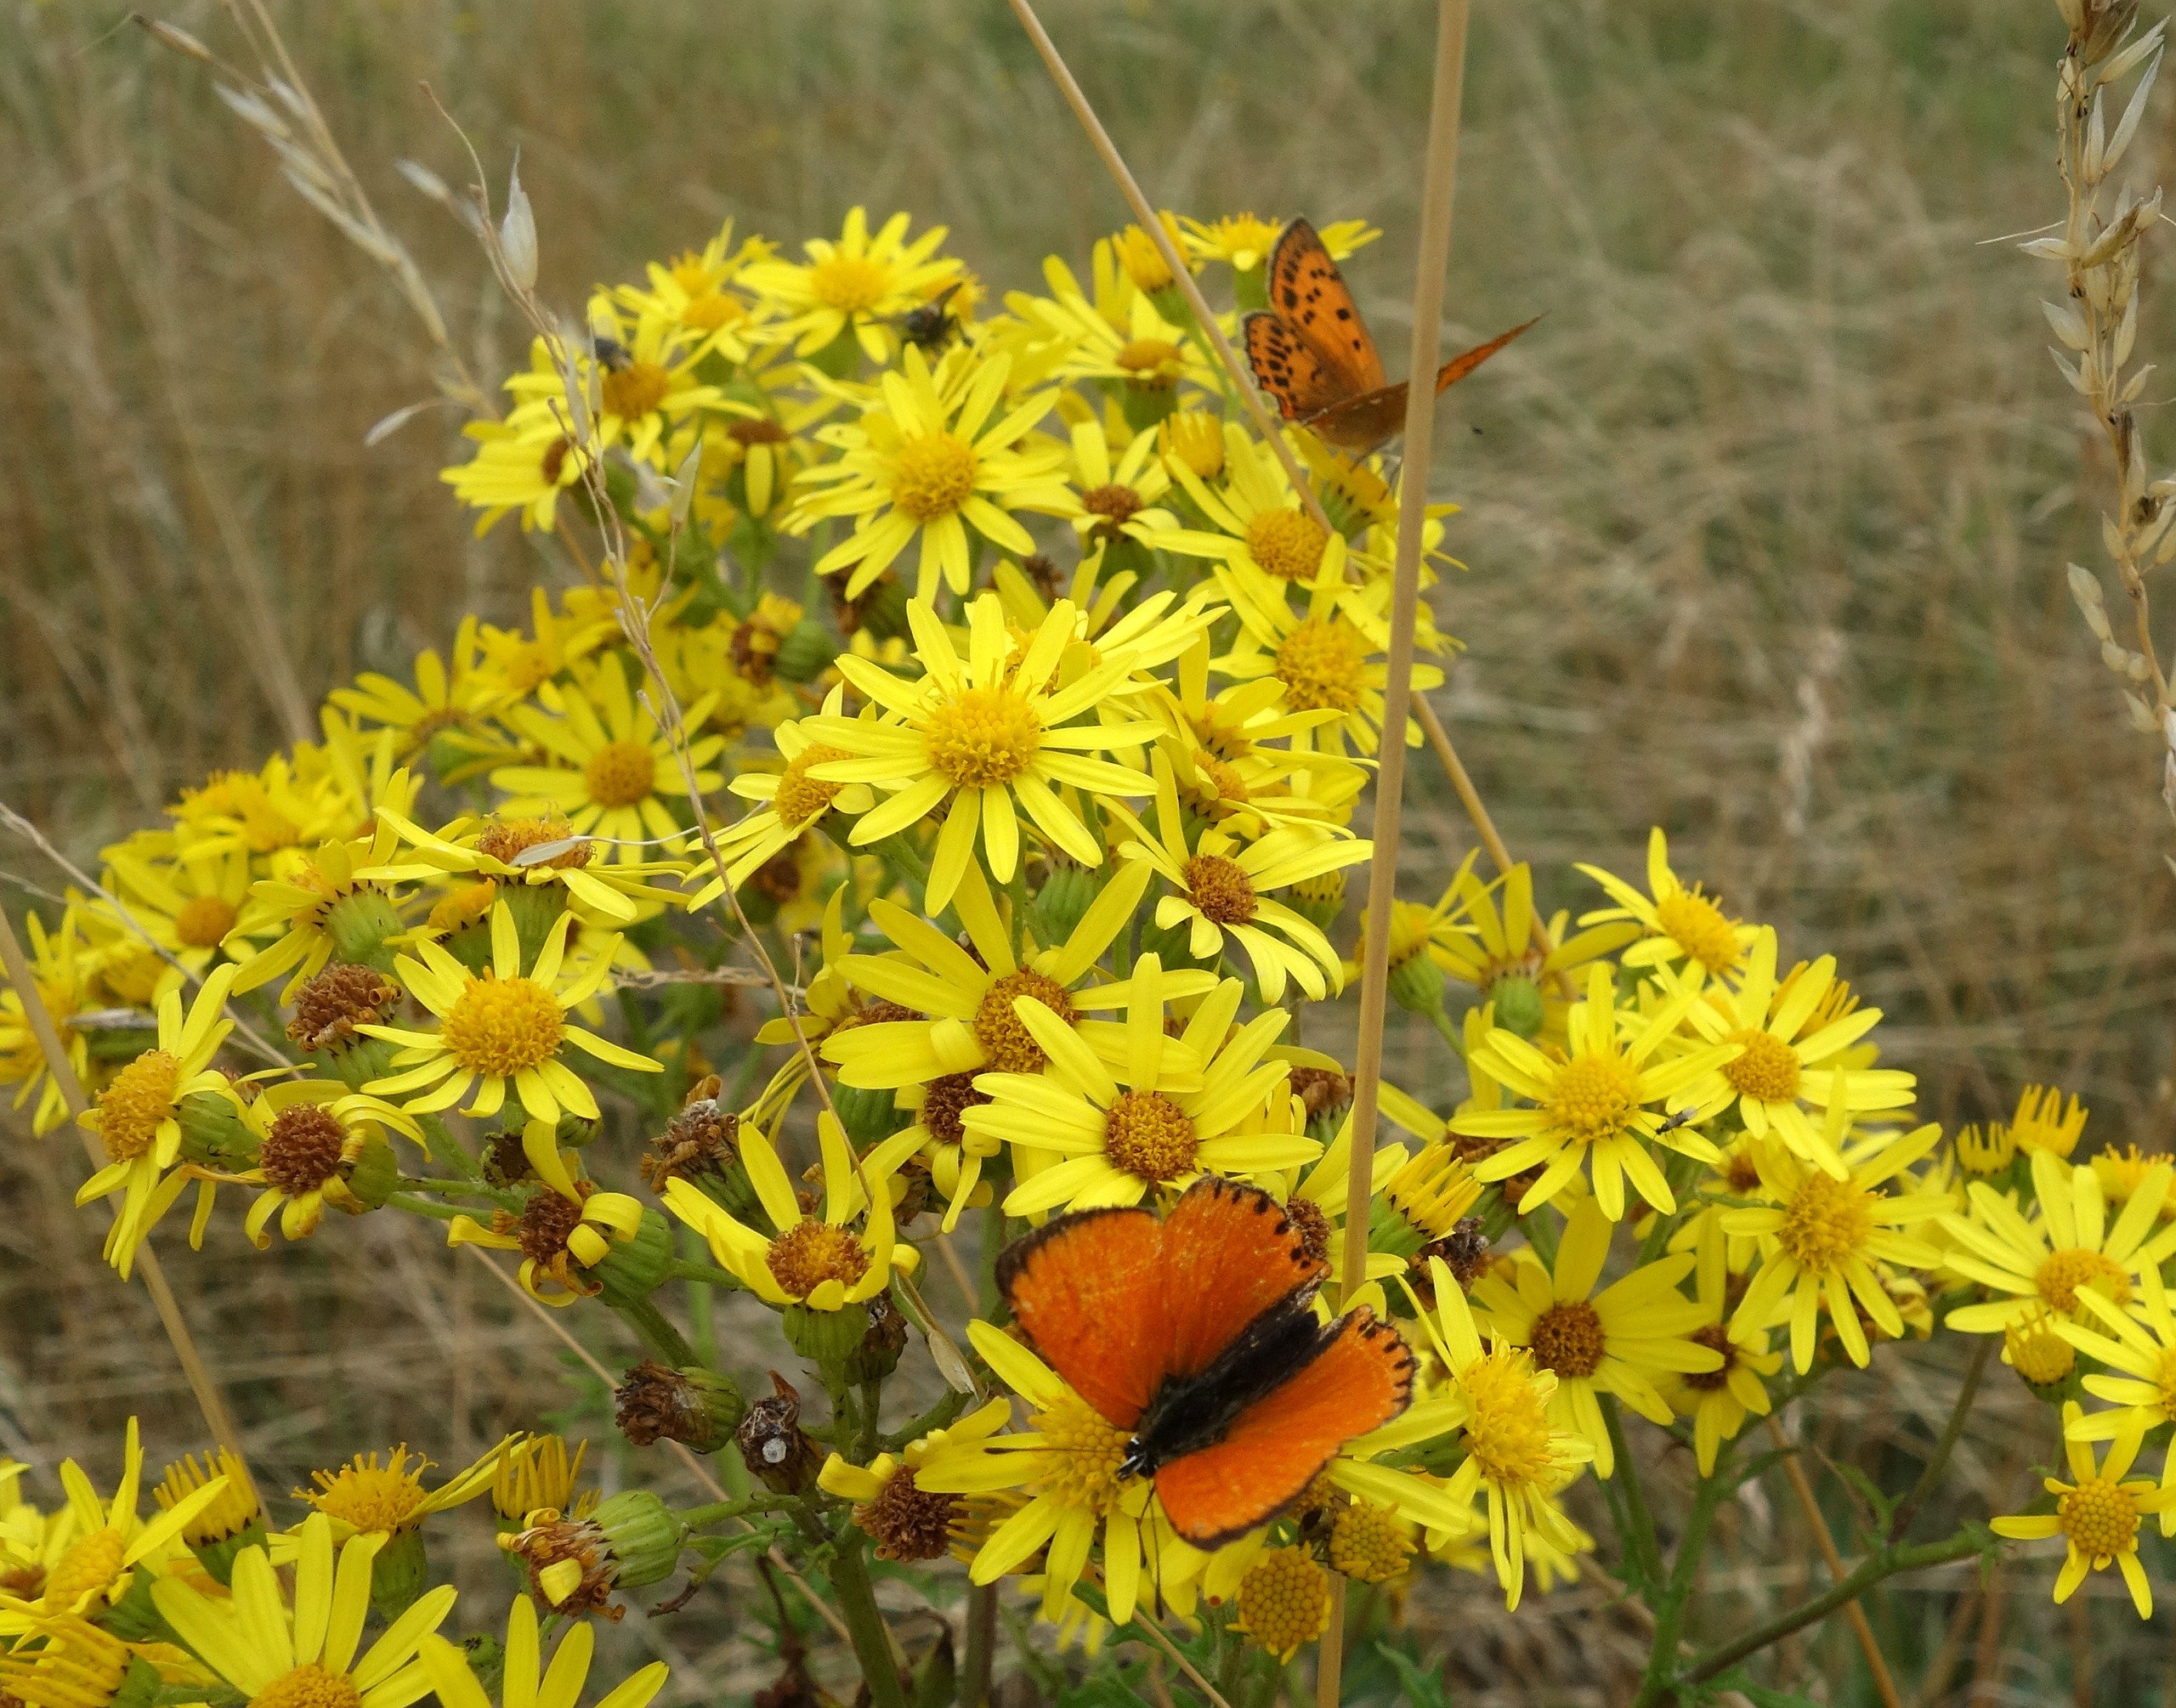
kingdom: Animalia
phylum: Arthropoda
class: Insecta
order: Lepidoptera
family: Lycaenidae
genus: Lycaena
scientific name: Lycaena virgaureae
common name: Dukatsommerfugl
